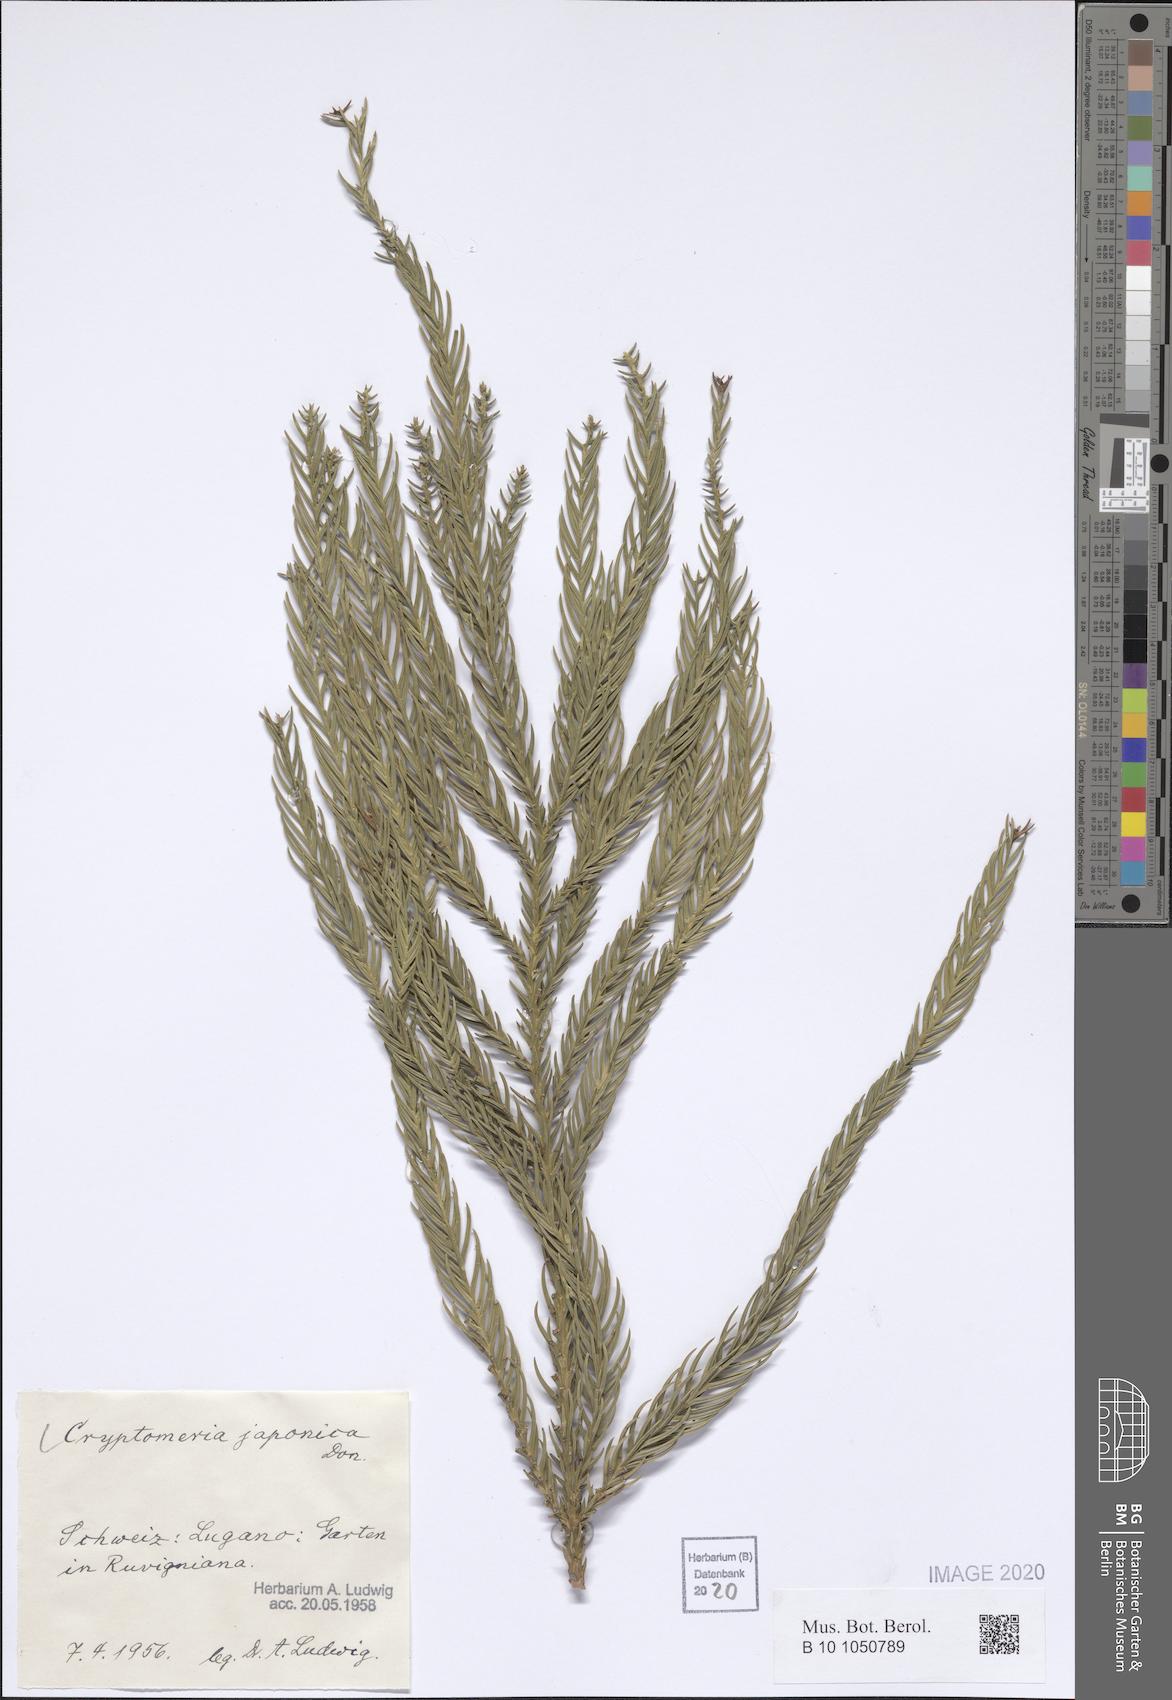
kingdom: Plantae
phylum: Tracheophyta
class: Pinopsida
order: Pinales
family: Cupressaceae
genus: Cryptomeria
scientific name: Cryptomeria japonica
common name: Japanese cedar
